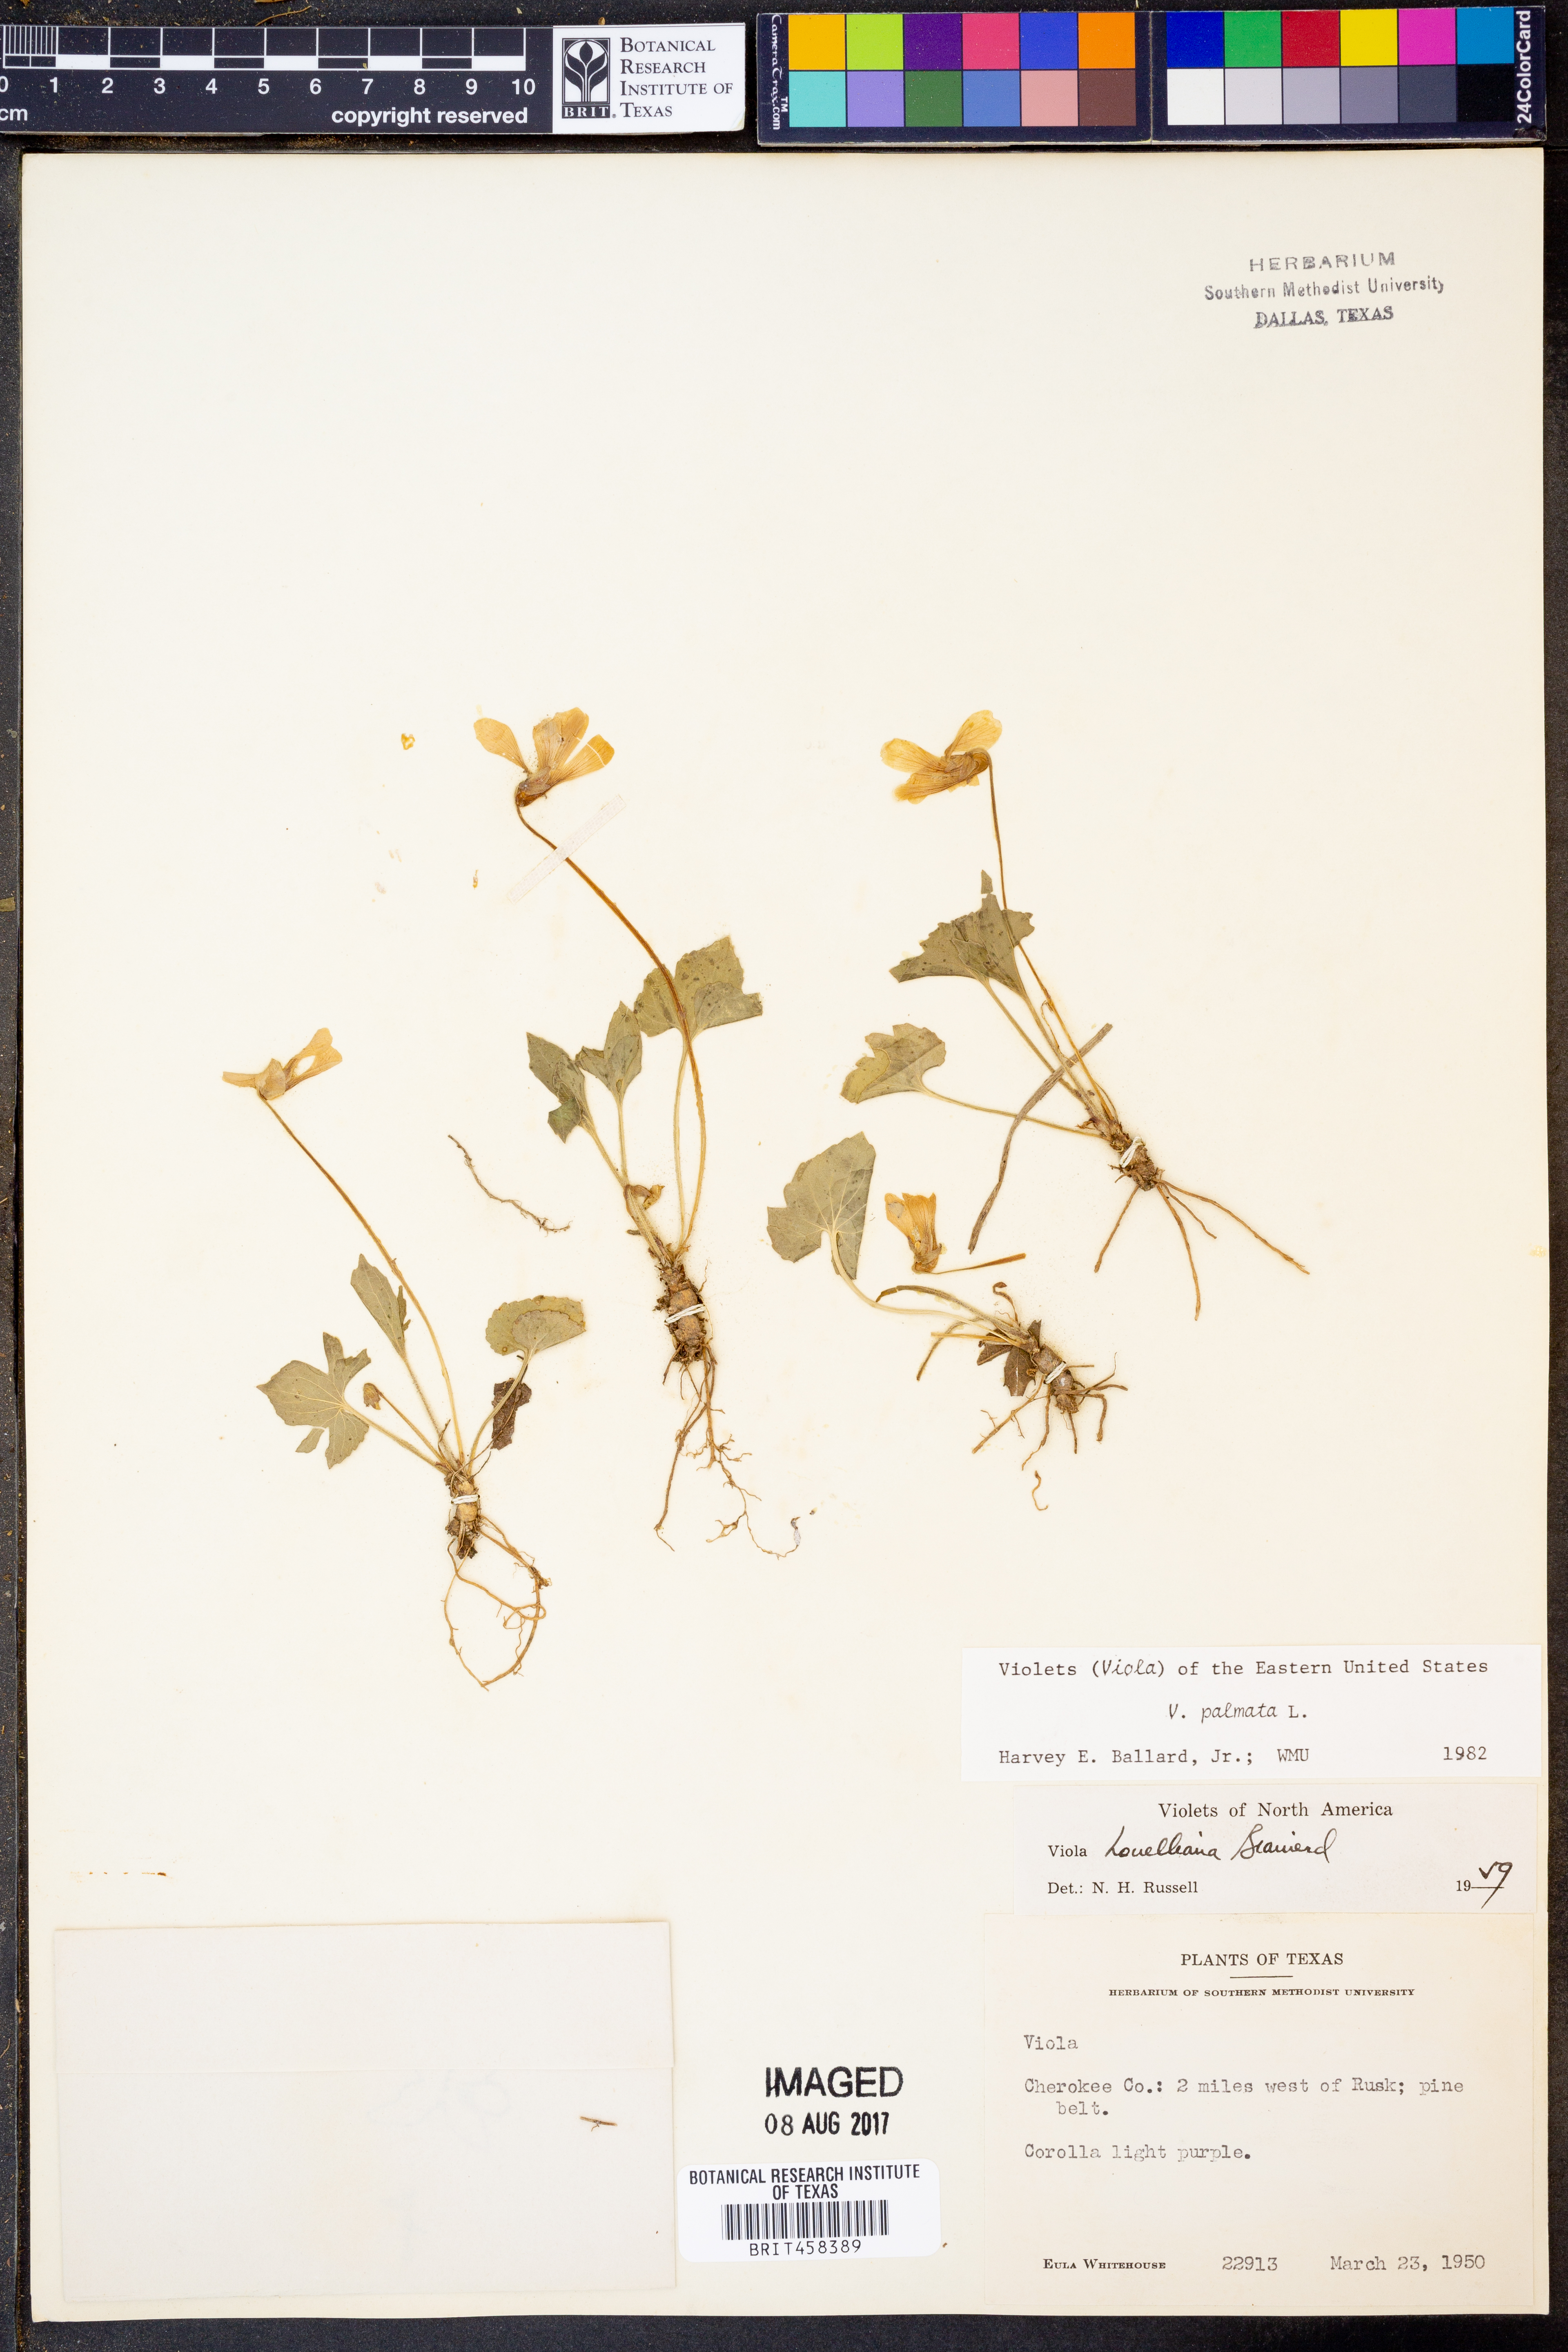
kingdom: Plantae
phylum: Tracheophyta
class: Magnoliopsida
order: Malpighiales
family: Violaceae
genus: Viola
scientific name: Viola palmata
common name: Early blue violet
